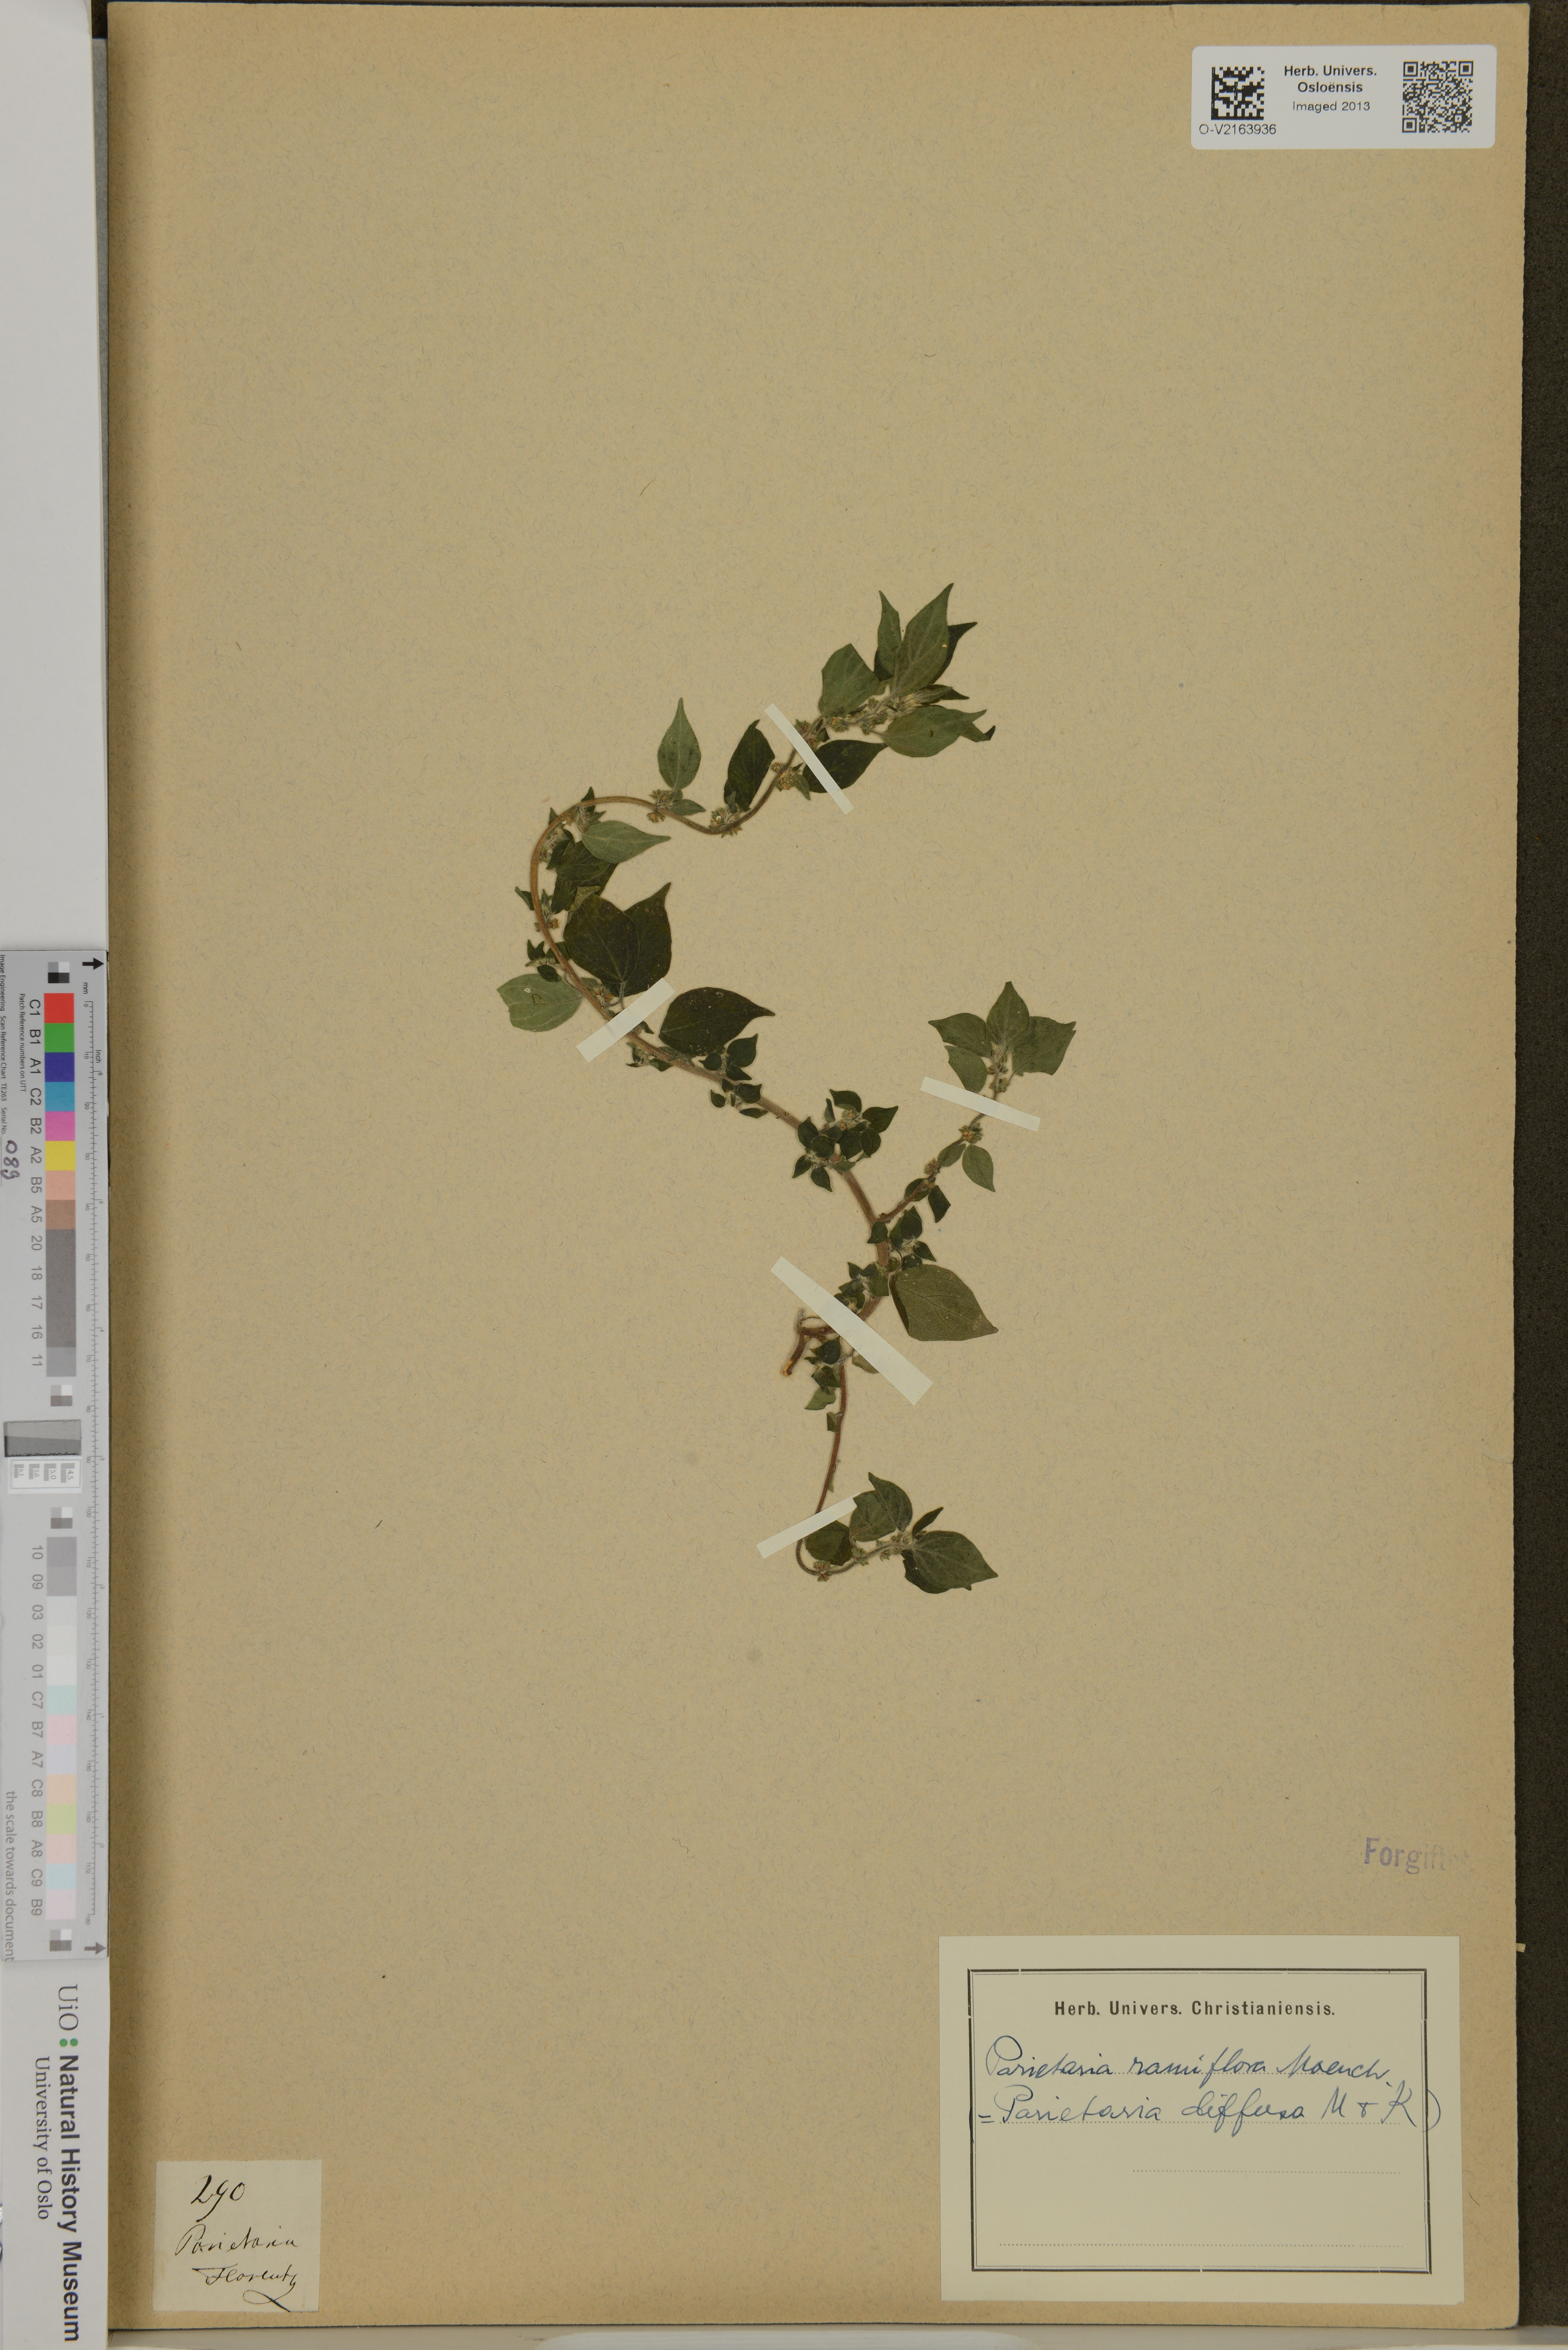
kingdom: Plantae
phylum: Tracheophyta
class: Magnoliopsida
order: Rosales
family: Urticaceae
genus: Parietaria
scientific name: Parietaria judaica
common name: Pellitory-of-the-wall
